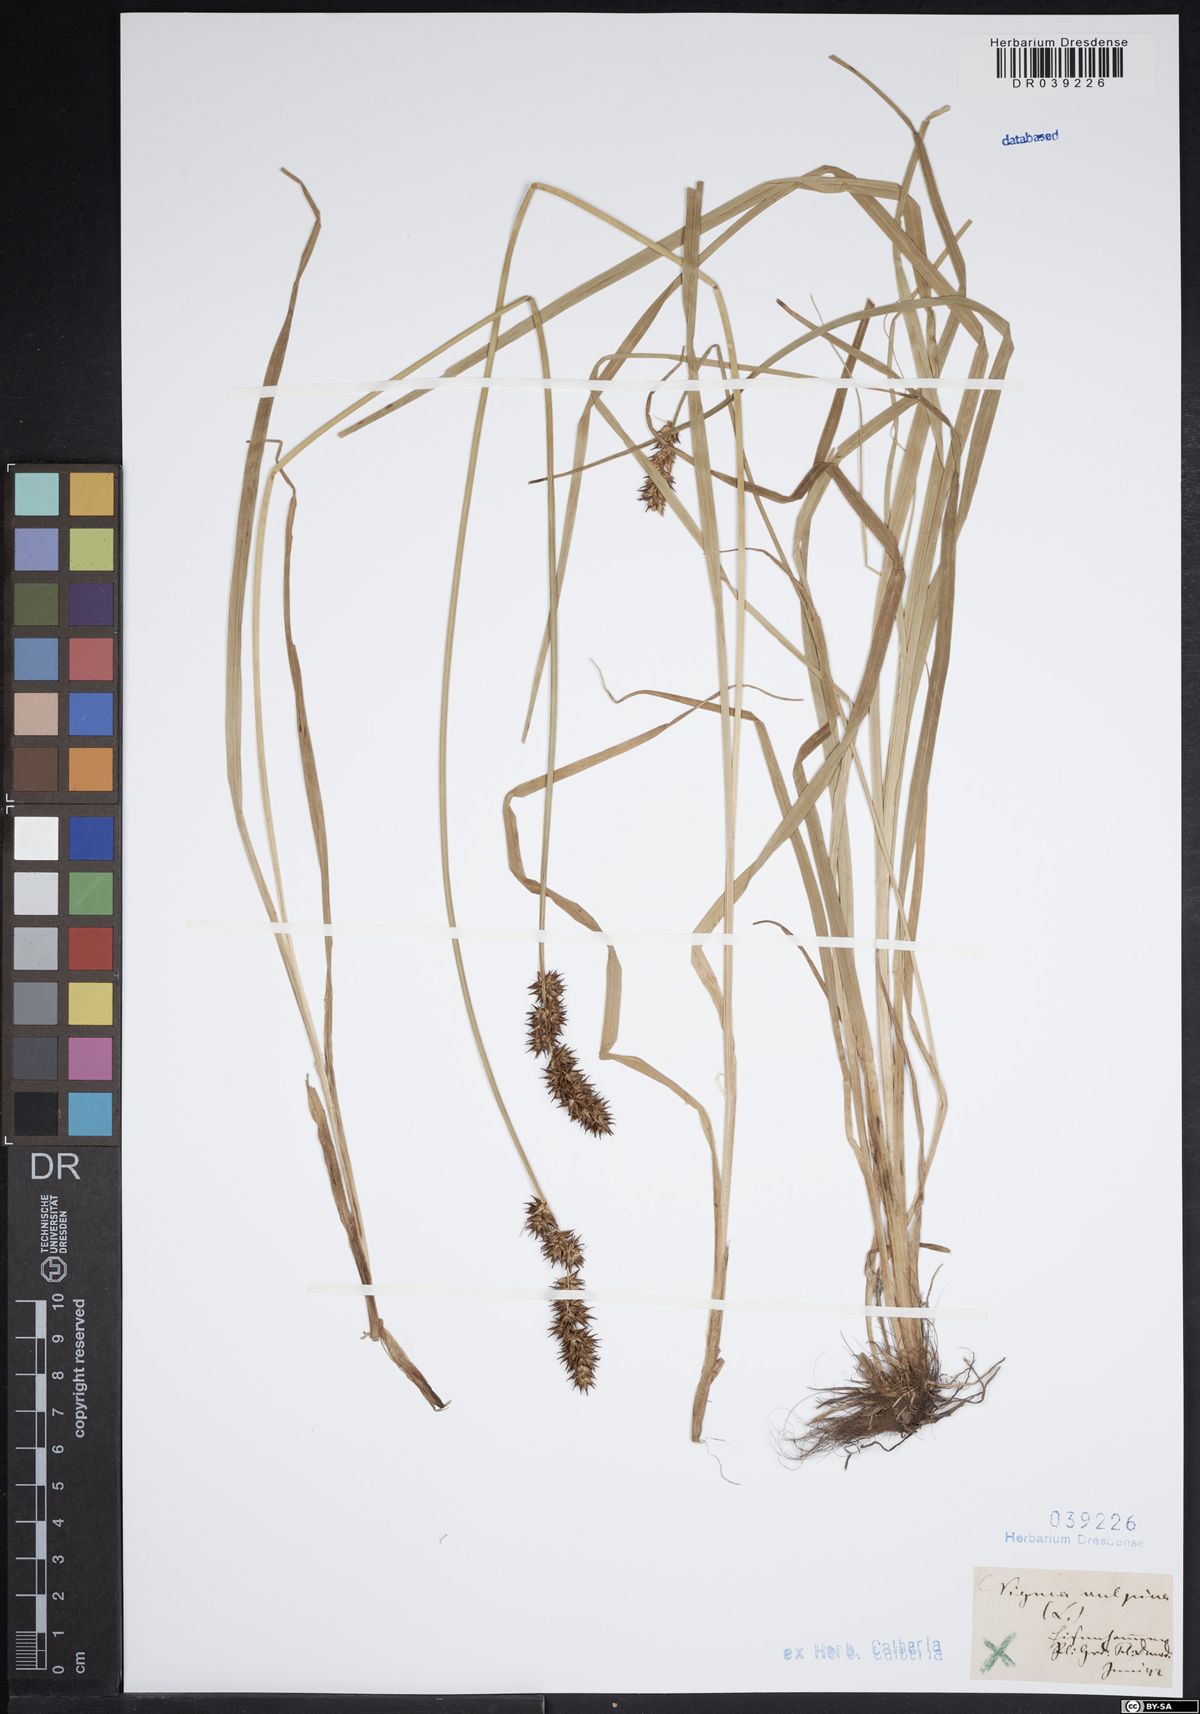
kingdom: Plantae
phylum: Tracheophyta
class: Liliopsida
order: Poales
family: Cyperaceae
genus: Carex
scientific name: Carex vulpina
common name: True fox-sedge
